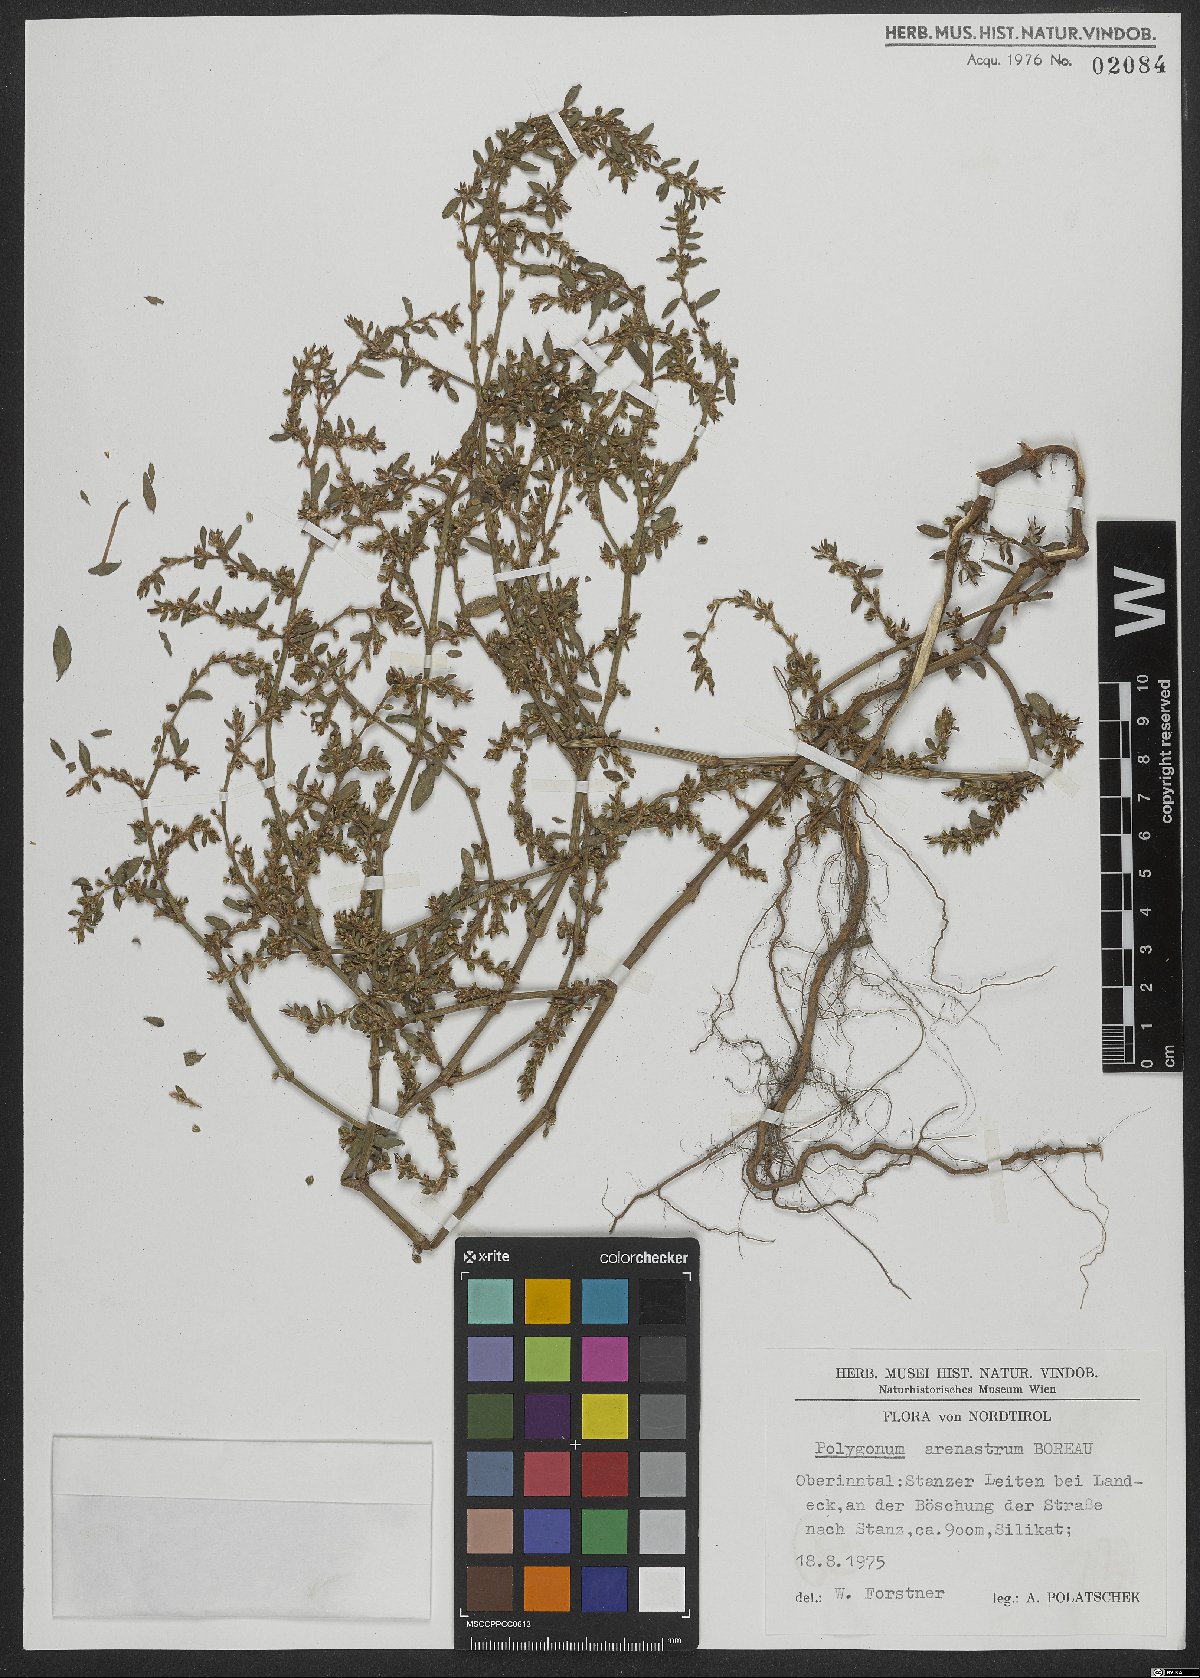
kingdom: Plantae
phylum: Tracheophyta
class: Magnoliopsida
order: Caryophyllales
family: Polygonaceae
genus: Polygonum
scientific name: Polygonum arenastrum
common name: Equal-leaved knotgrass
